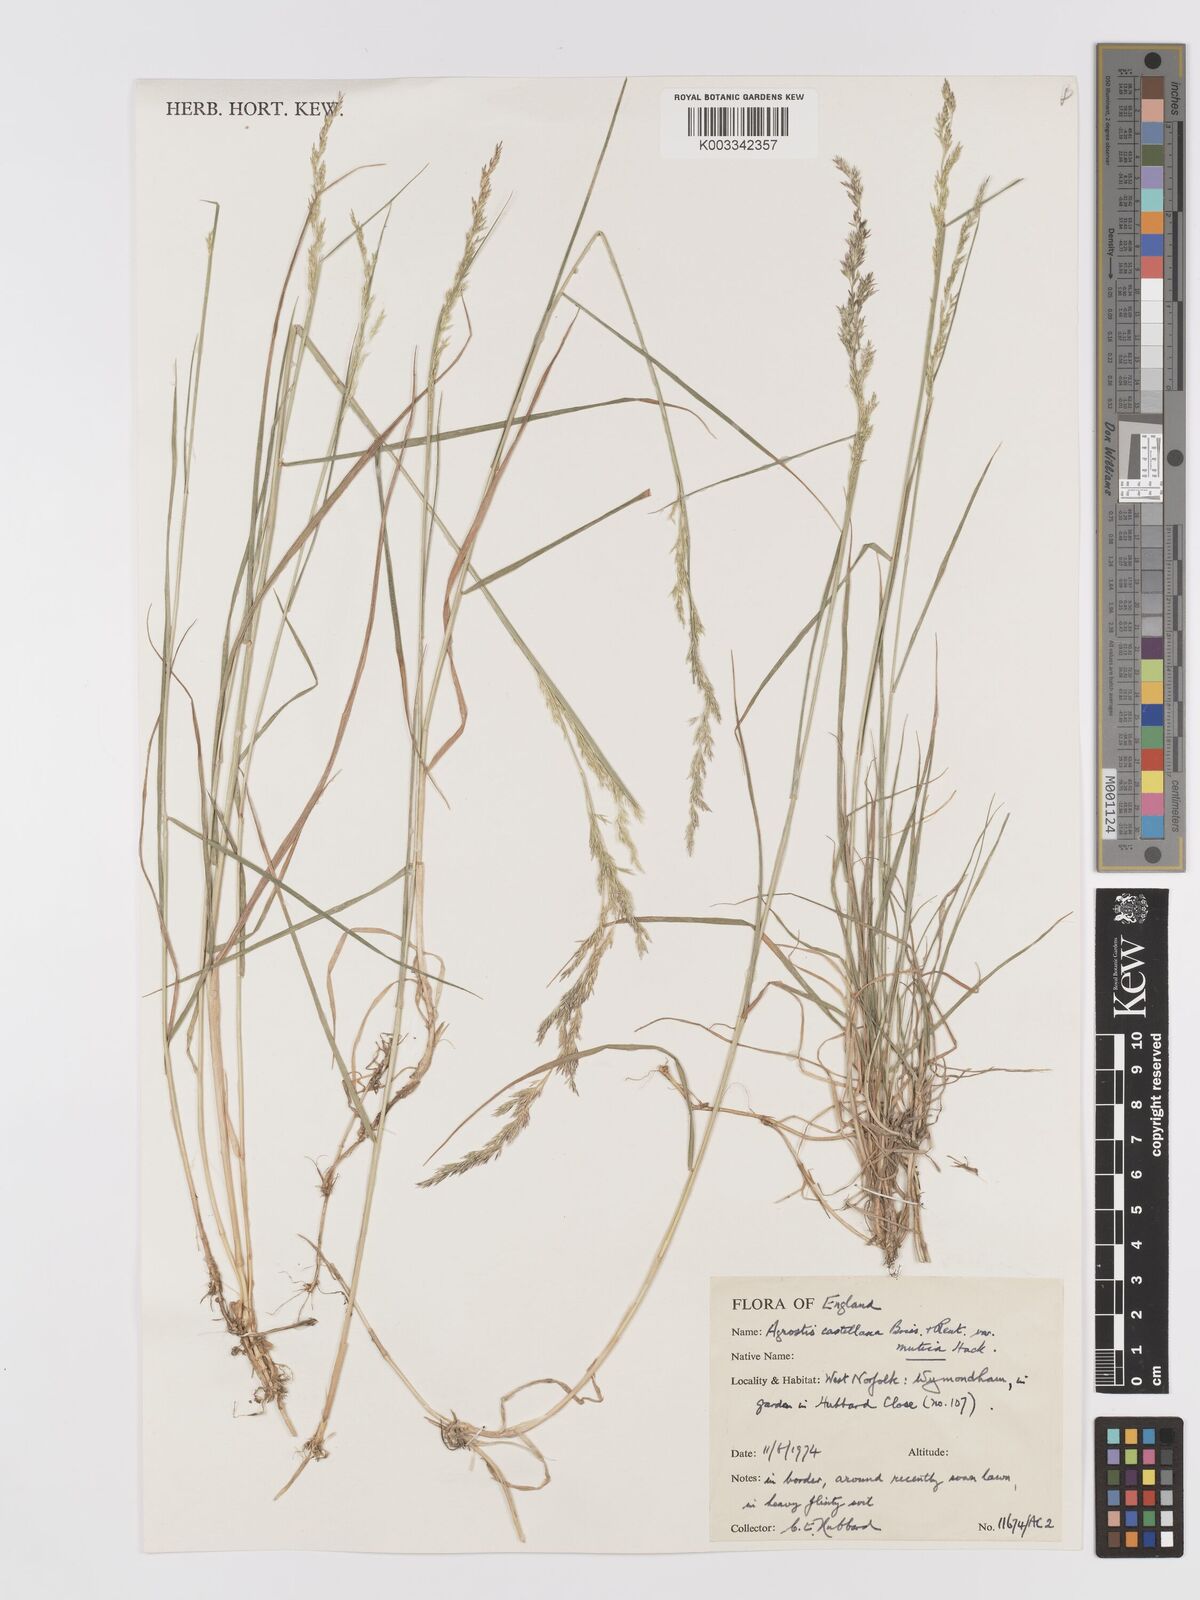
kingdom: Plantae
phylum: Tracheophyta
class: Liliopsida
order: Poales
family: Poaceae
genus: Agrostis
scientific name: Agrostis castellana
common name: Highland bent
